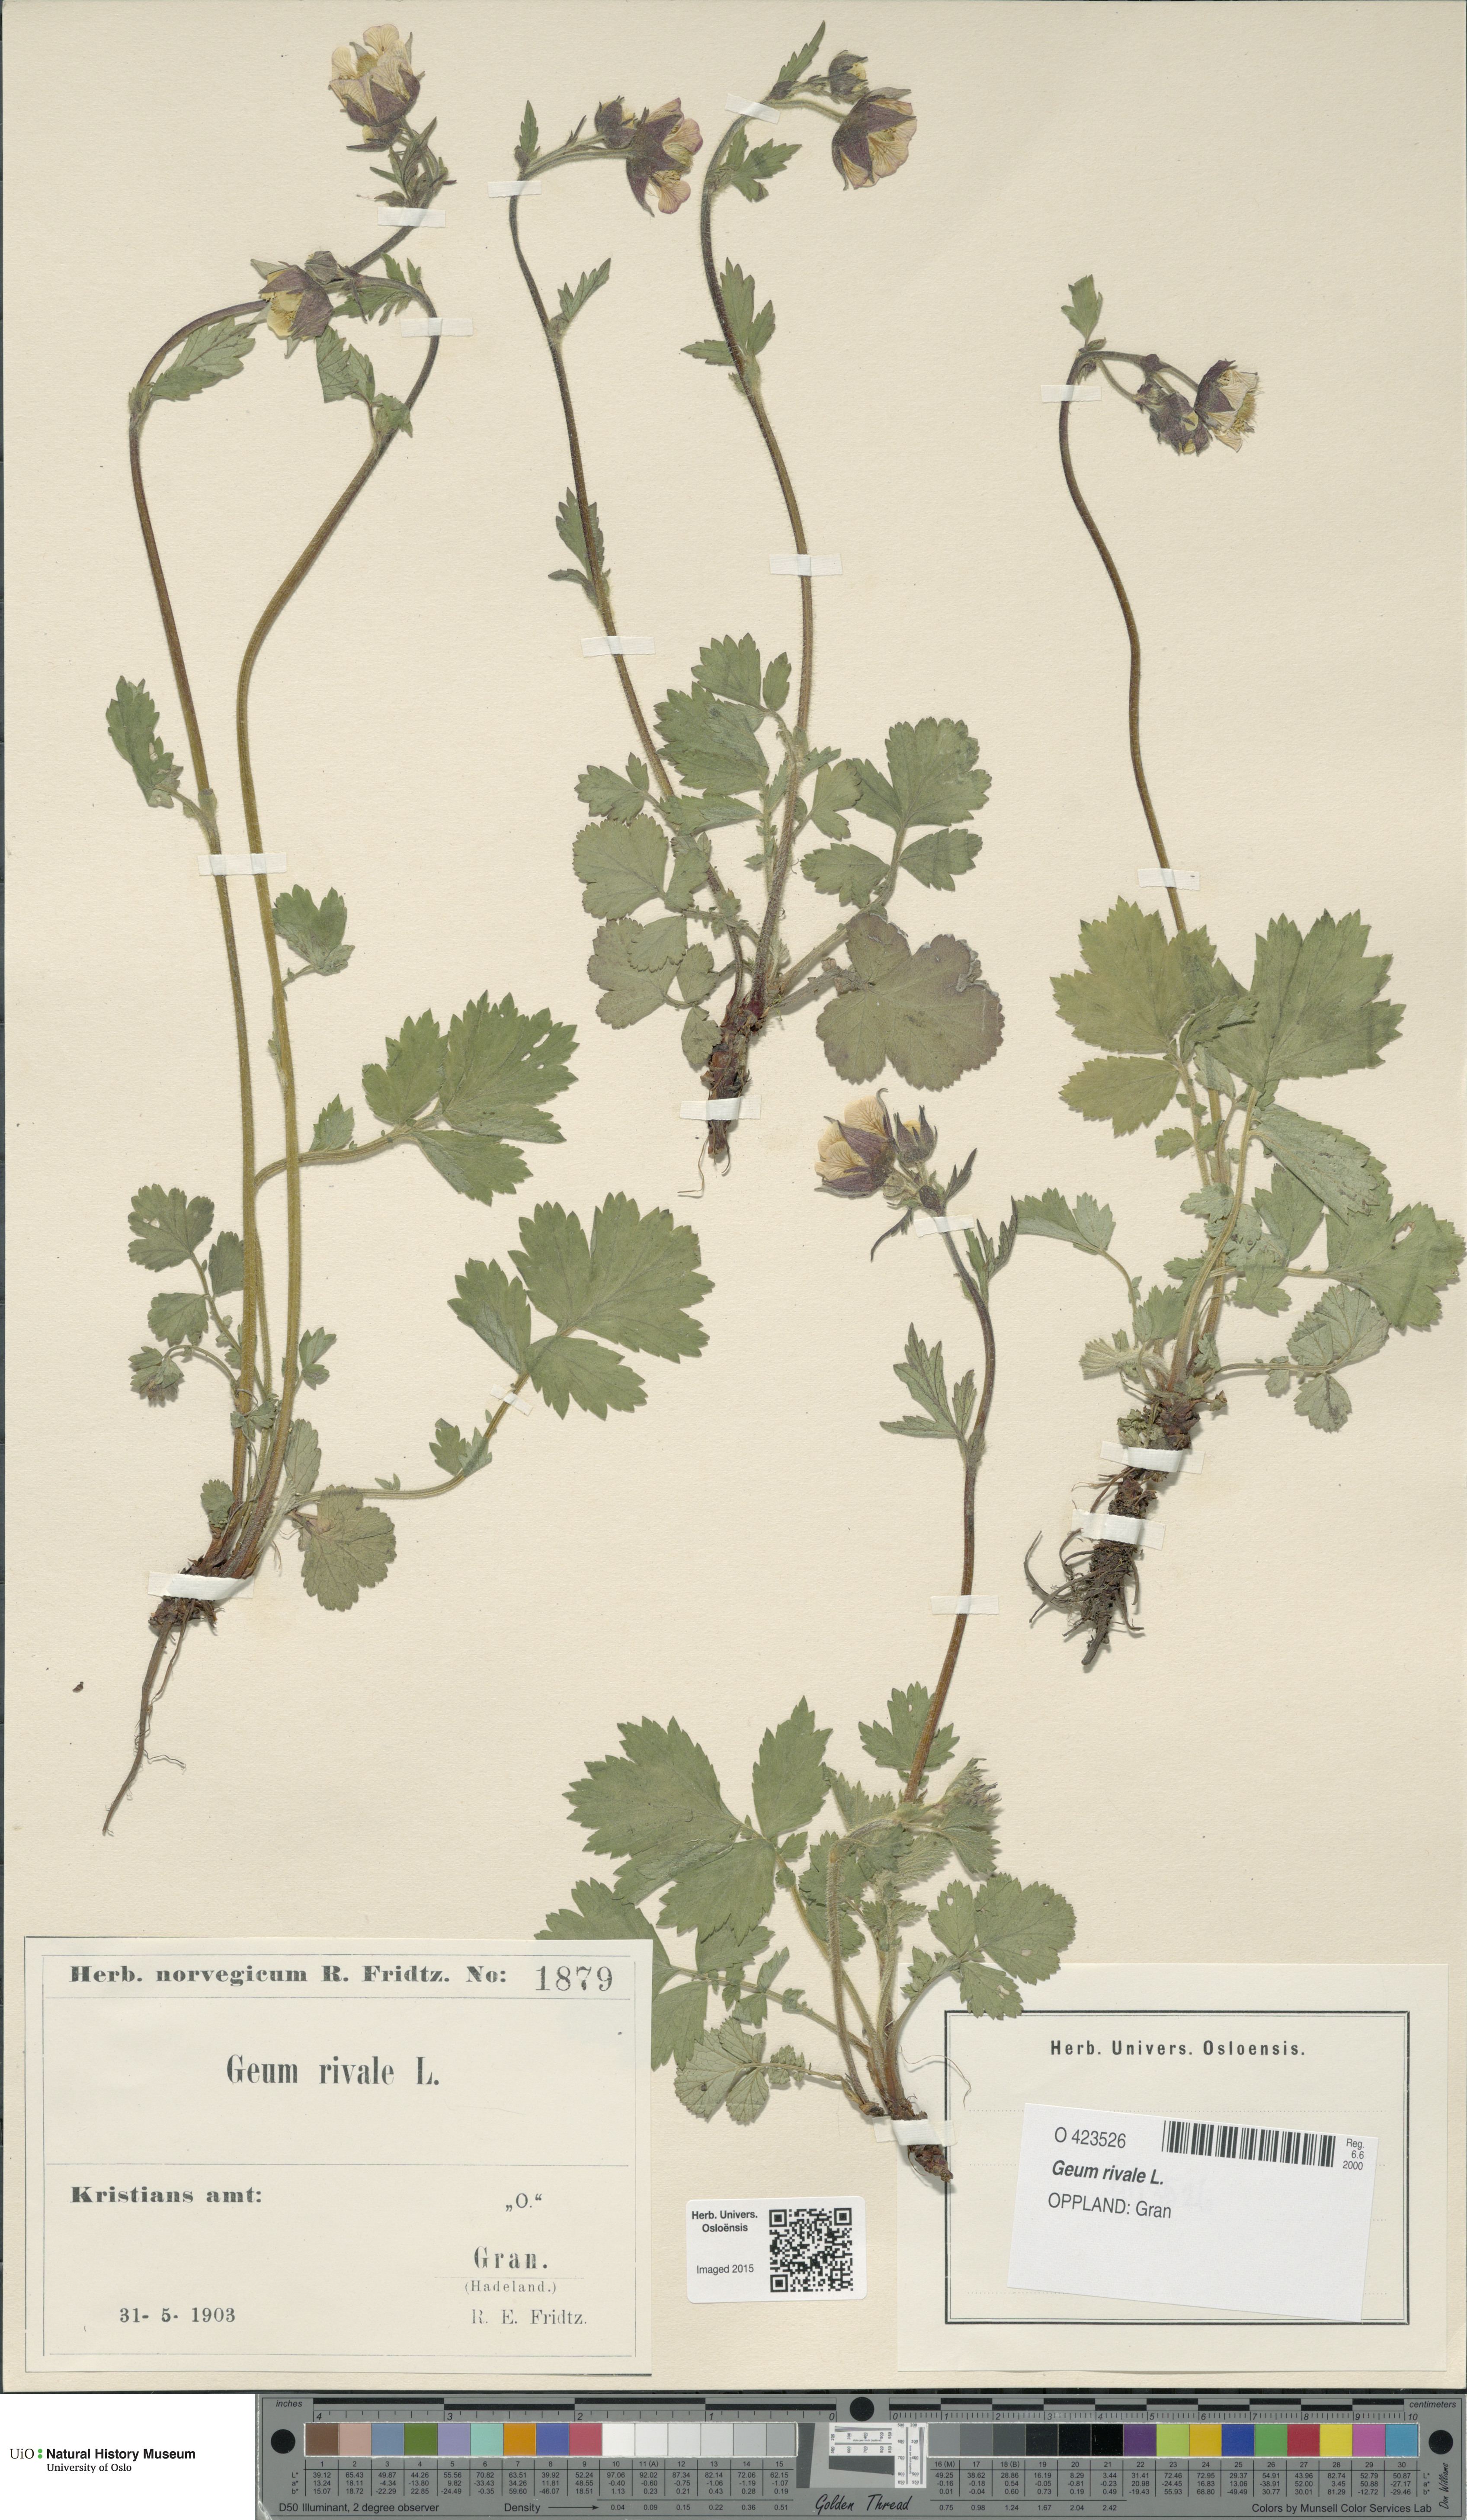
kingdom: Plantae
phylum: Tracheophyta
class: Magnoliopsida
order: Rosales
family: Rosaceae
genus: Geum
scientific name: Geum rivale
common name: Water avens
